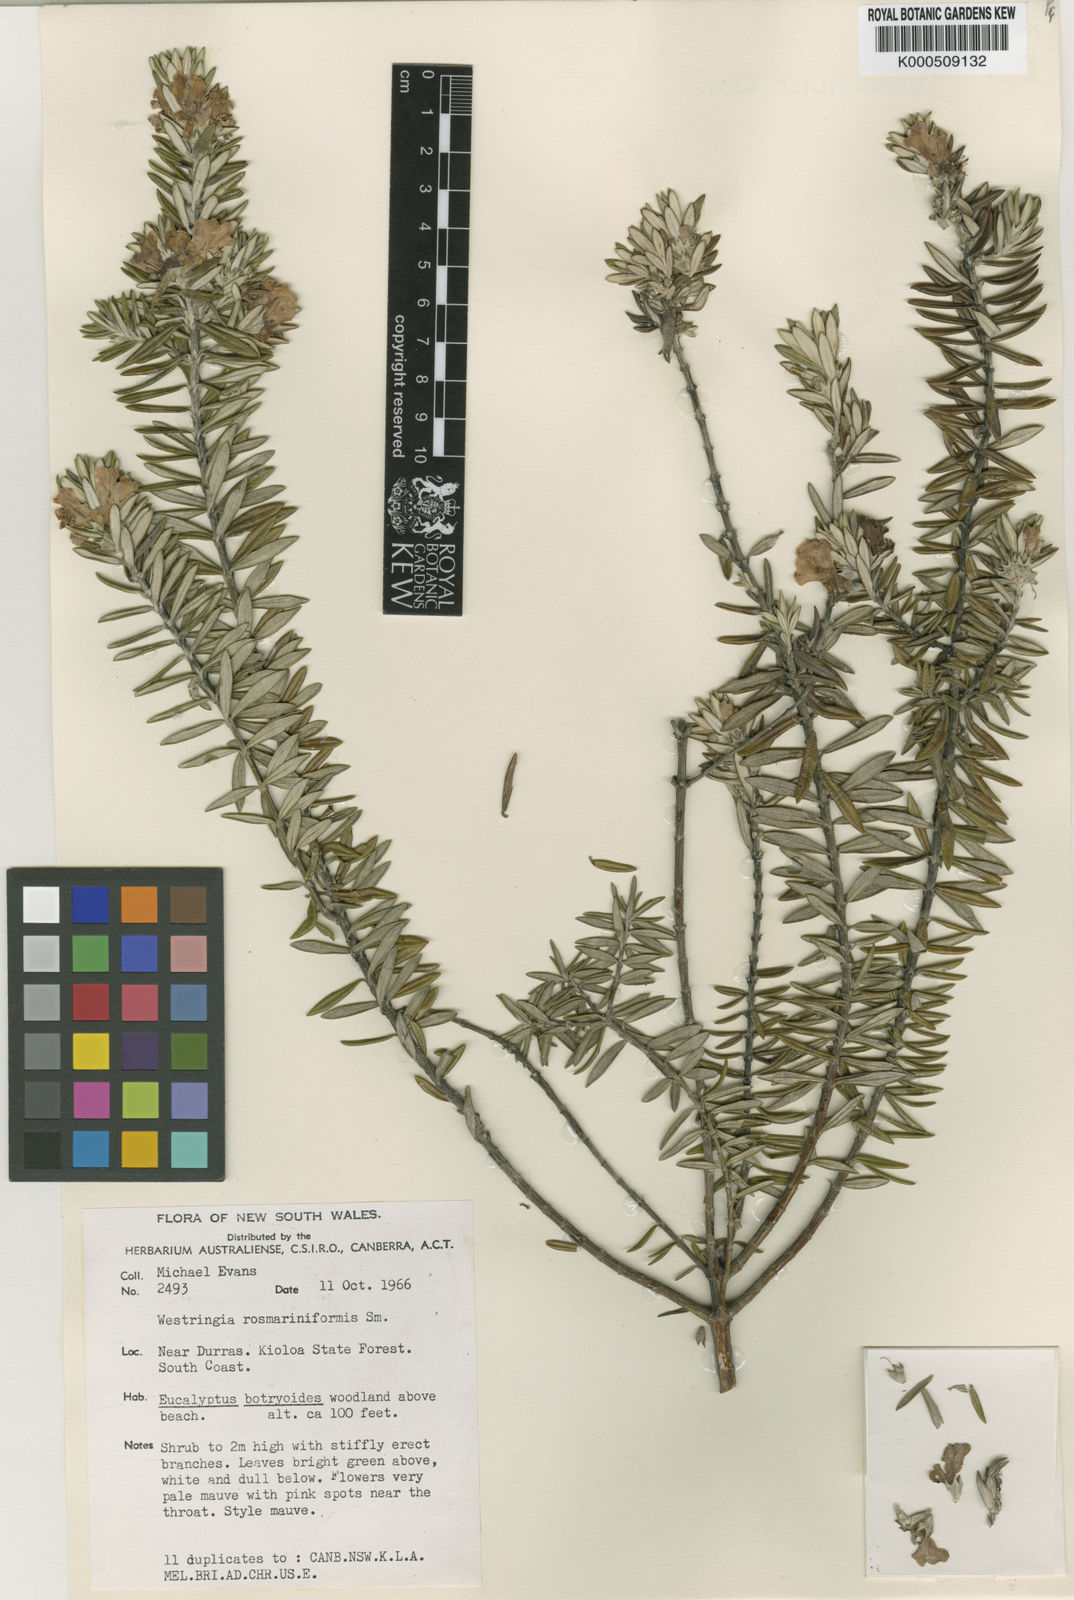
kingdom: Plantae
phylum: Tracheophyta
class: Magnoliopsida
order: Lamiales
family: Lamiaceae
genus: Westringia
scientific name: Westringia fruticosa
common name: Coastal-rosemary
